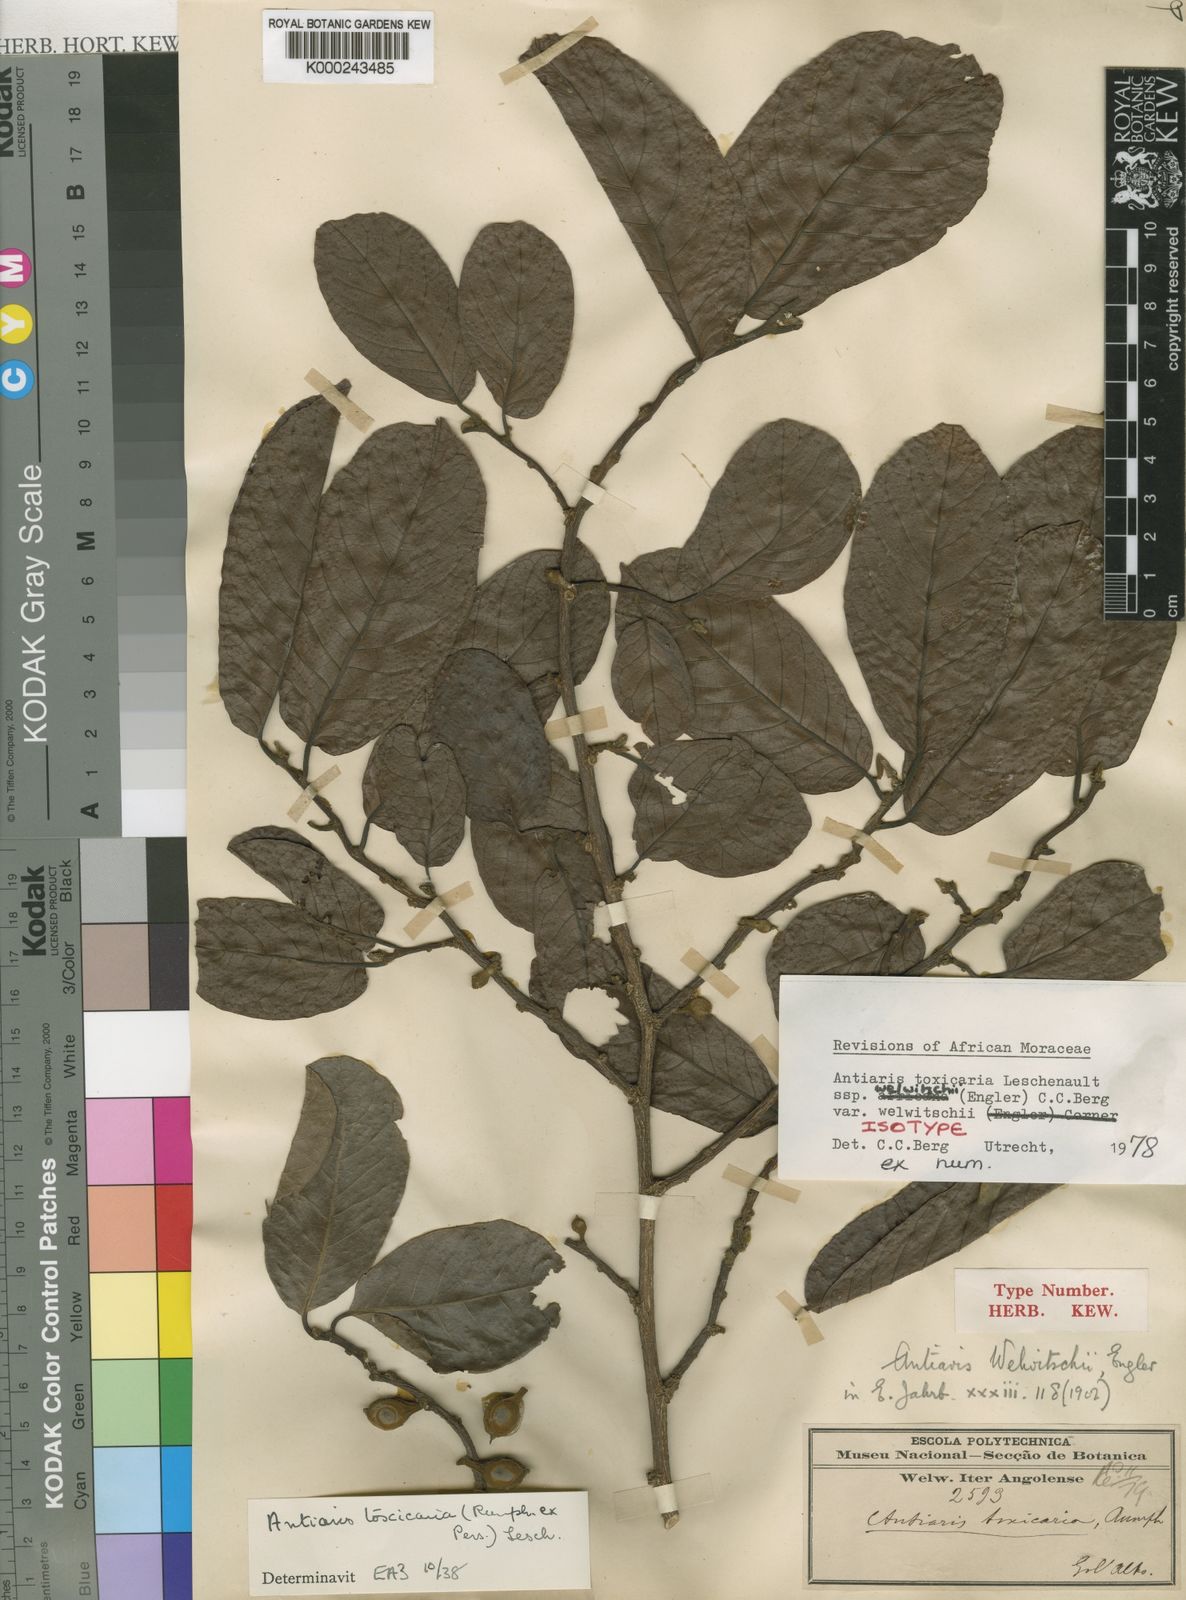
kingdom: Plantae
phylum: Tracheophyta
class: Magnoliopsida
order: Rosales
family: Moraceae
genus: Antiaris
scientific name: Antiaris toxicaria
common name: Sackingtree
